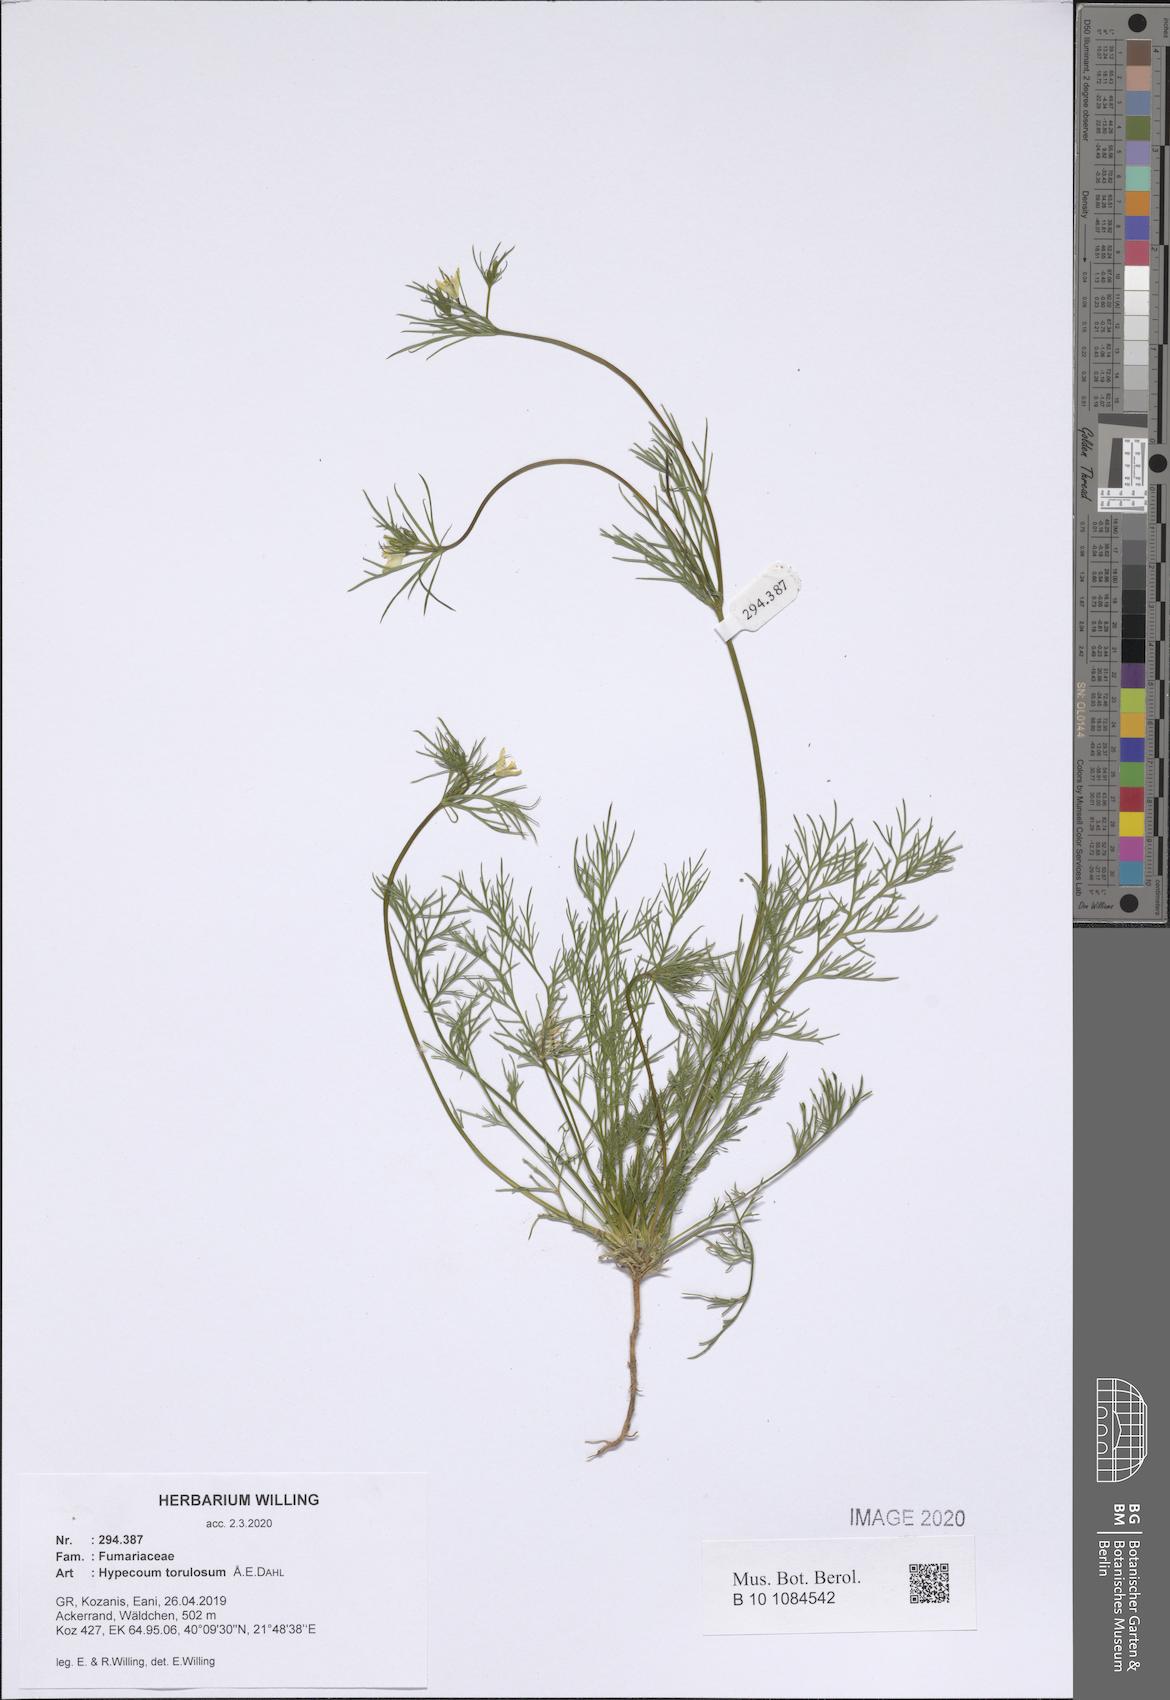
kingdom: Plantae
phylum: Tracheophyta
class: Magnoliopsida
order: Ranunculales
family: Papaveraceae
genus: Hypecoum
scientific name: Hypecoum torulosum
